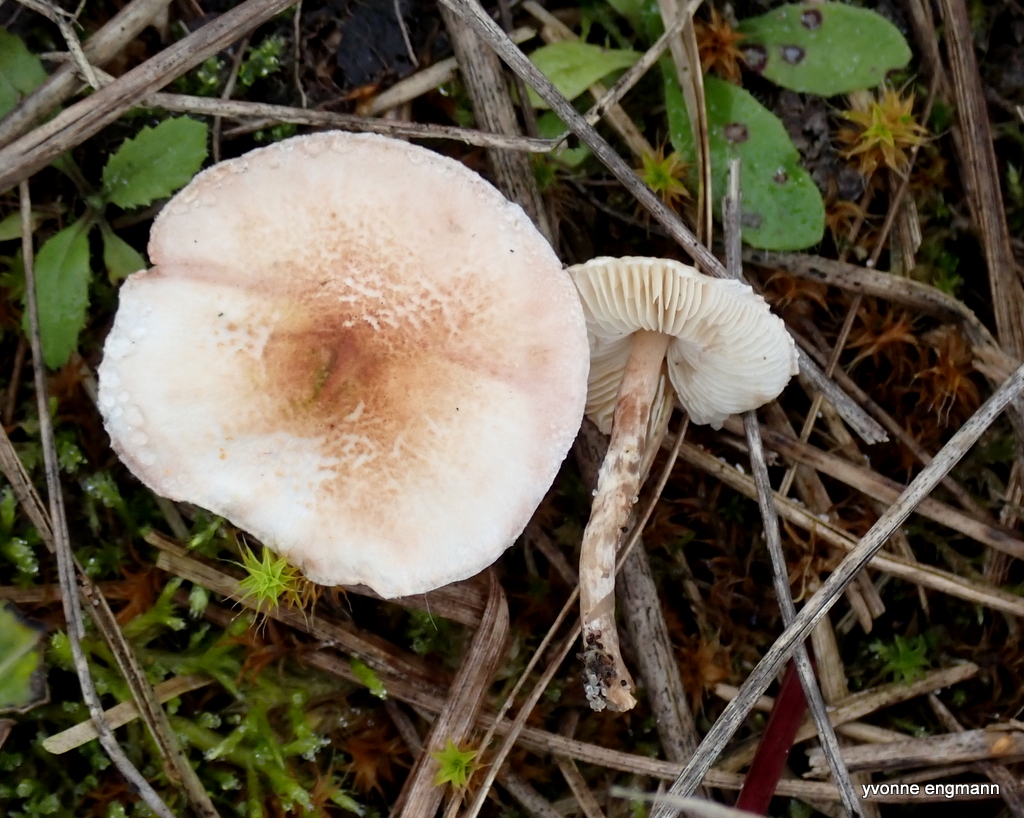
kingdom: Fungi
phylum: Basidiomycota
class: Agaricomycetes
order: Agaricales
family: Agaricaceae
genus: Lepiota
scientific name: Lepiota subincarnata
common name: kødfarvet parasolhat
